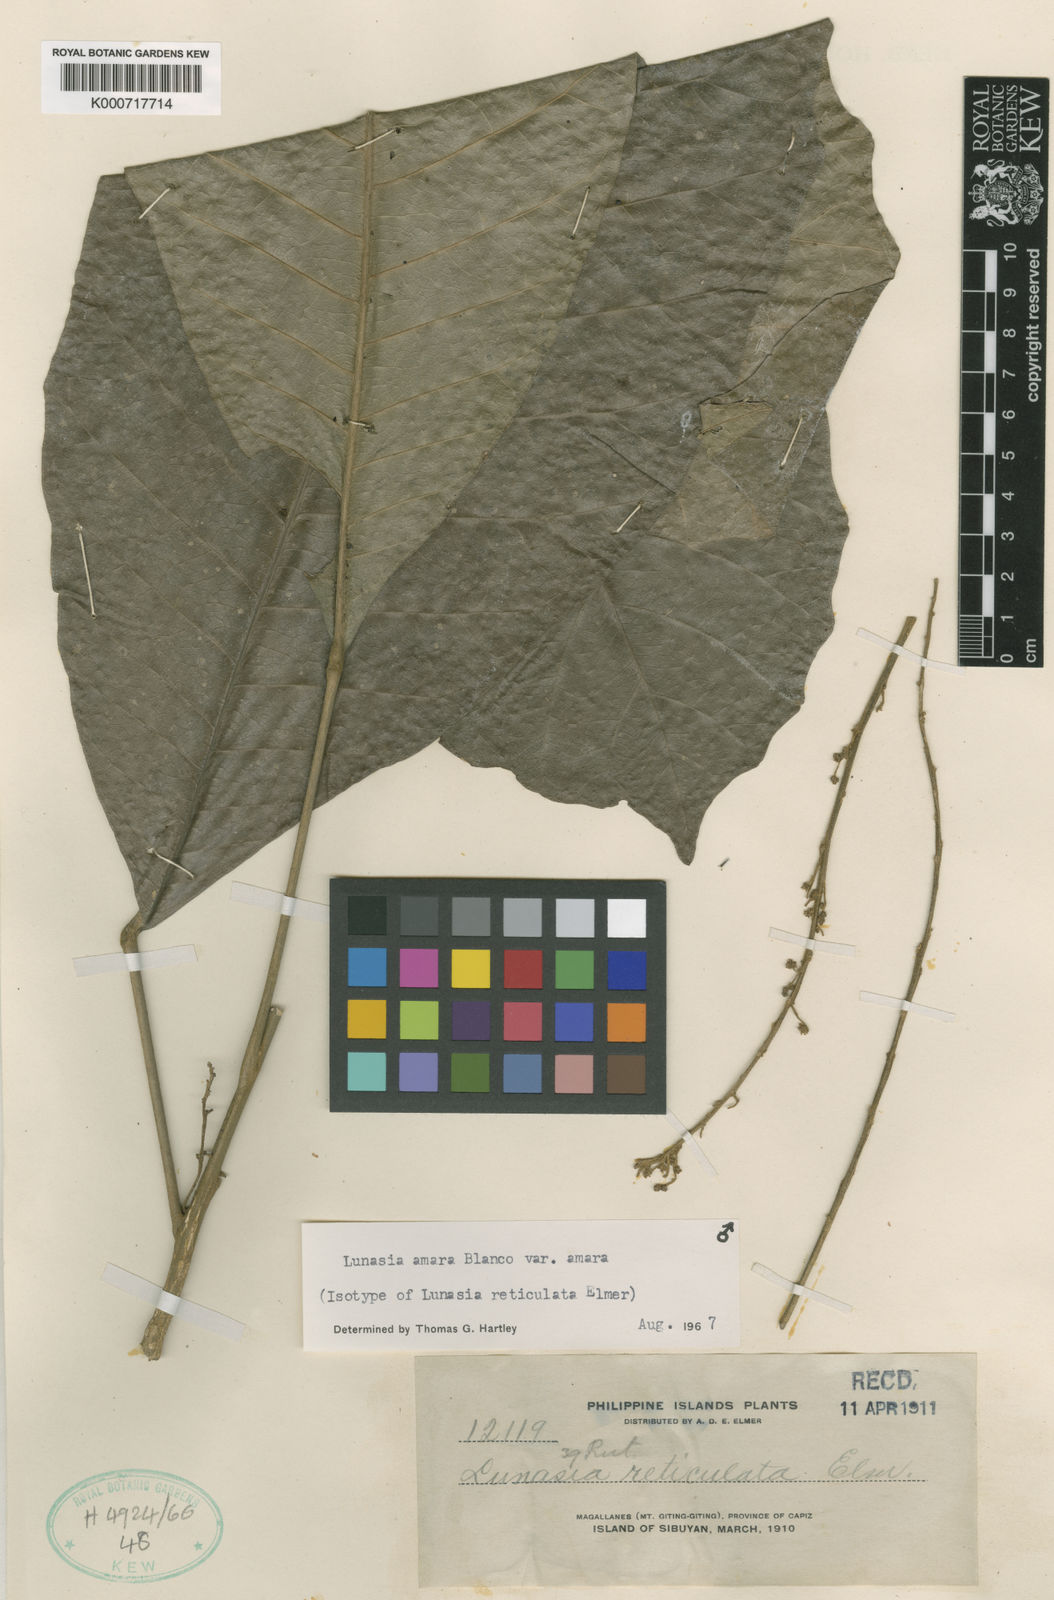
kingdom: Plantae
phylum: Tracheophyta
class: Magnoliopsida
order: Sapindales
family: Rutaceae
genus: Lunasia
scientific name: Lunasia amara
